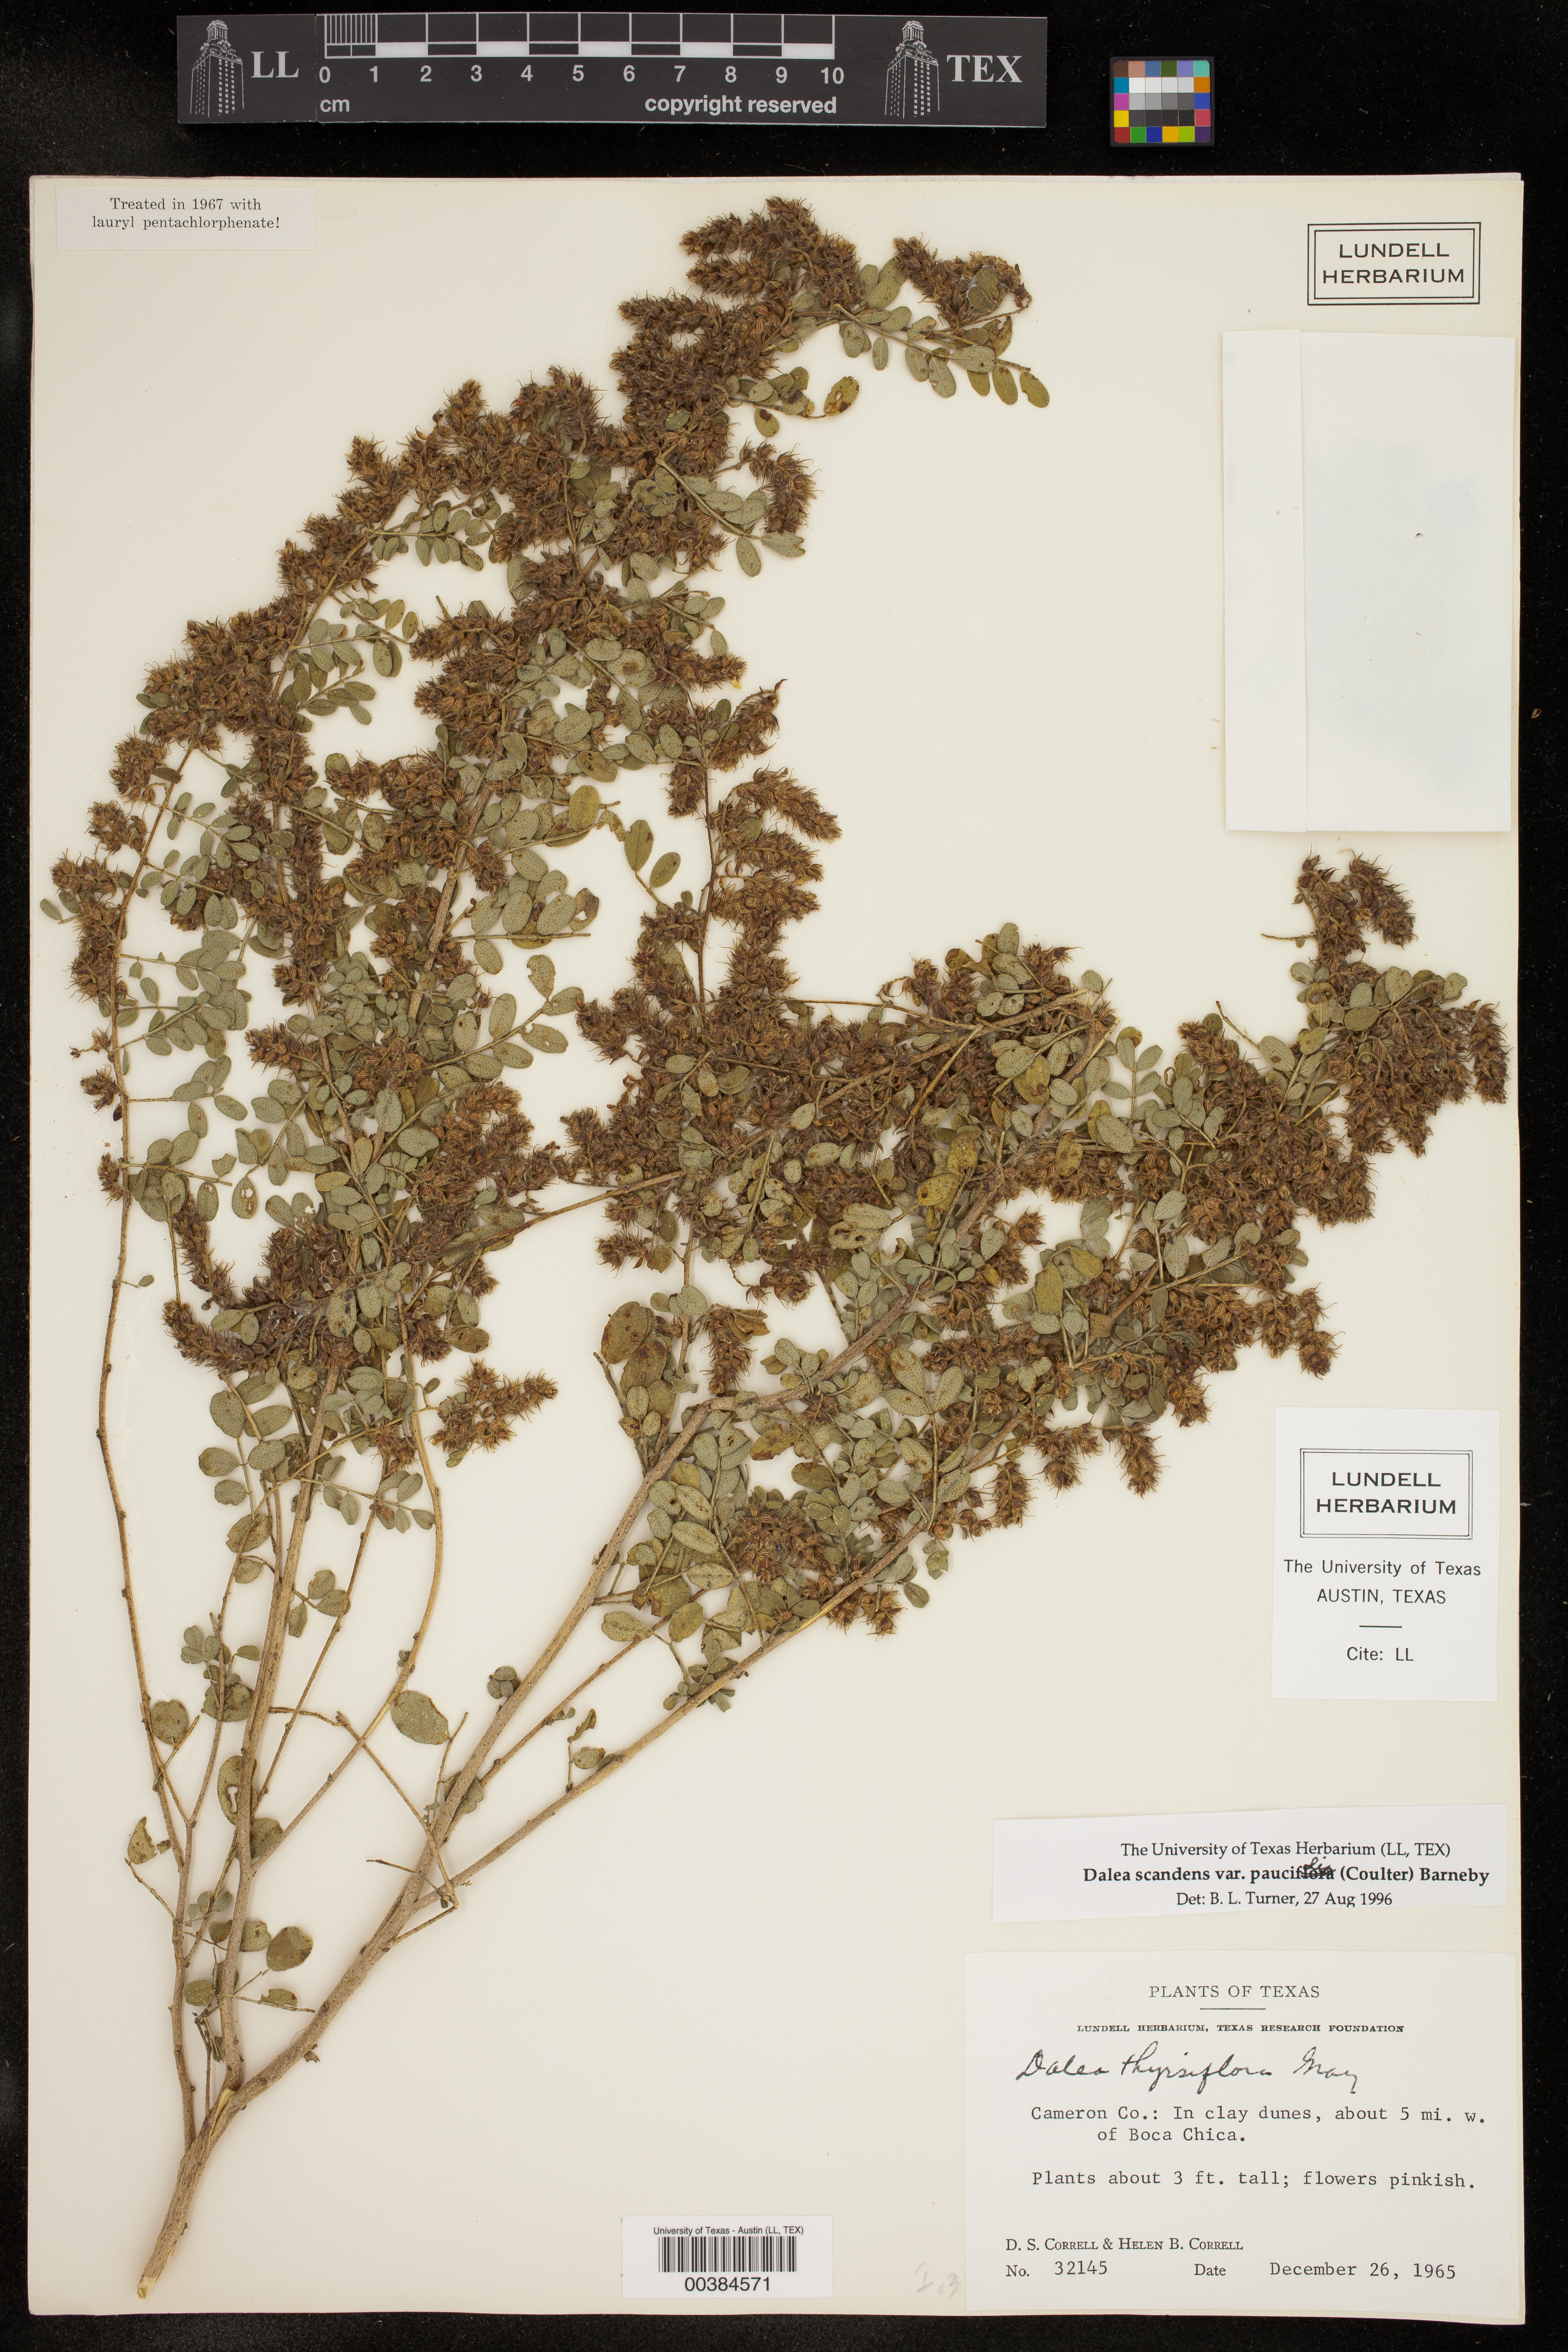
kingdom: Plantae
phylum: Tracheophyta
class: Magnoliopsida
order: Fabales
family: Fabaceae
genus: Dalea
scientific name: Dalea scandens
